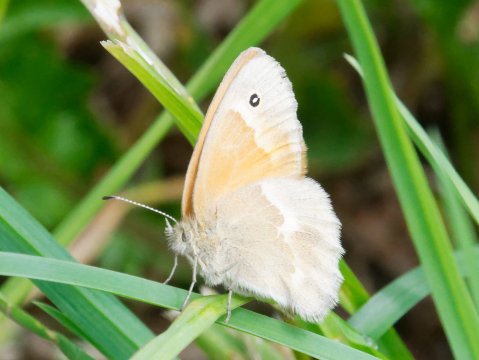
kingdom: Animalia
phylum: Arthropoda
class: Insecta
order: Lepidoptera
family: Nymphalidae
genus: Coenonympha
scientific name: Coenonympha tullia
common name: Large Heath
